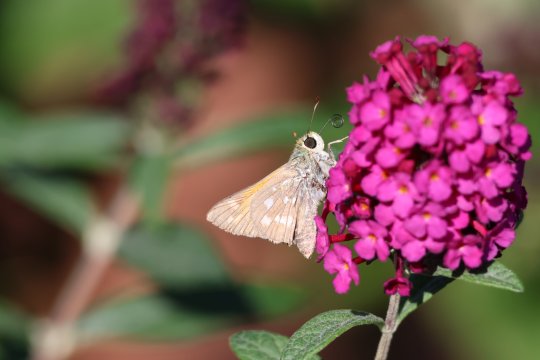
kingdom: Animalia
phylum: Arthropoda
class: Insecta
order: Lepidoptera
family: Hesperiidae
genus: Hesperia
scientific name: Hesperia comma
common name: Western Branded Skipper
